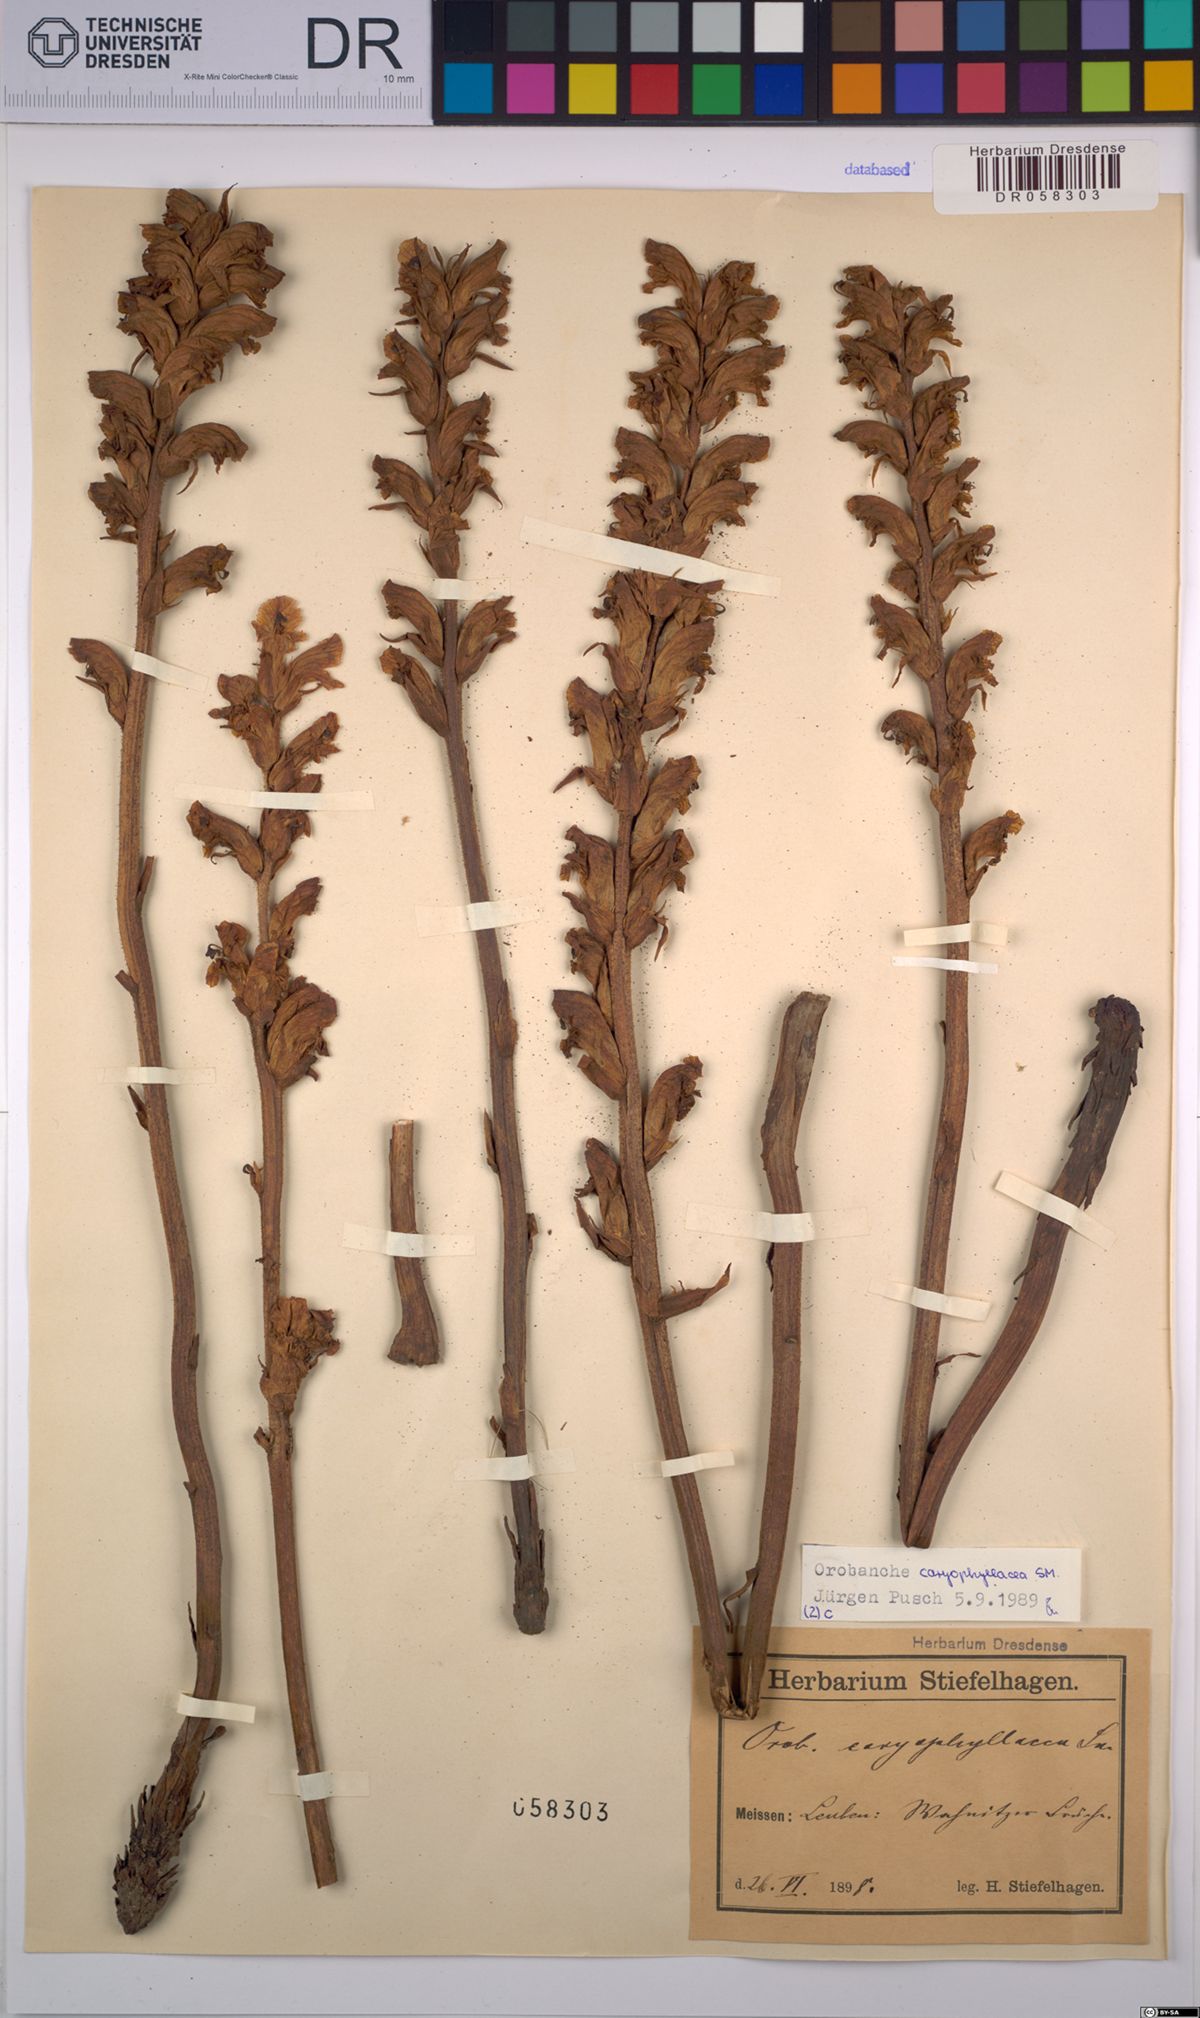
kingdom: Plantae
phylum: Tracheophyta
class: Magnoliopsida
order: Lamiales
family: Orobanchaceae
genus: Orobanche
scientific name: Orobanche caryophyllacea
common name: Bedstraw broomrape
